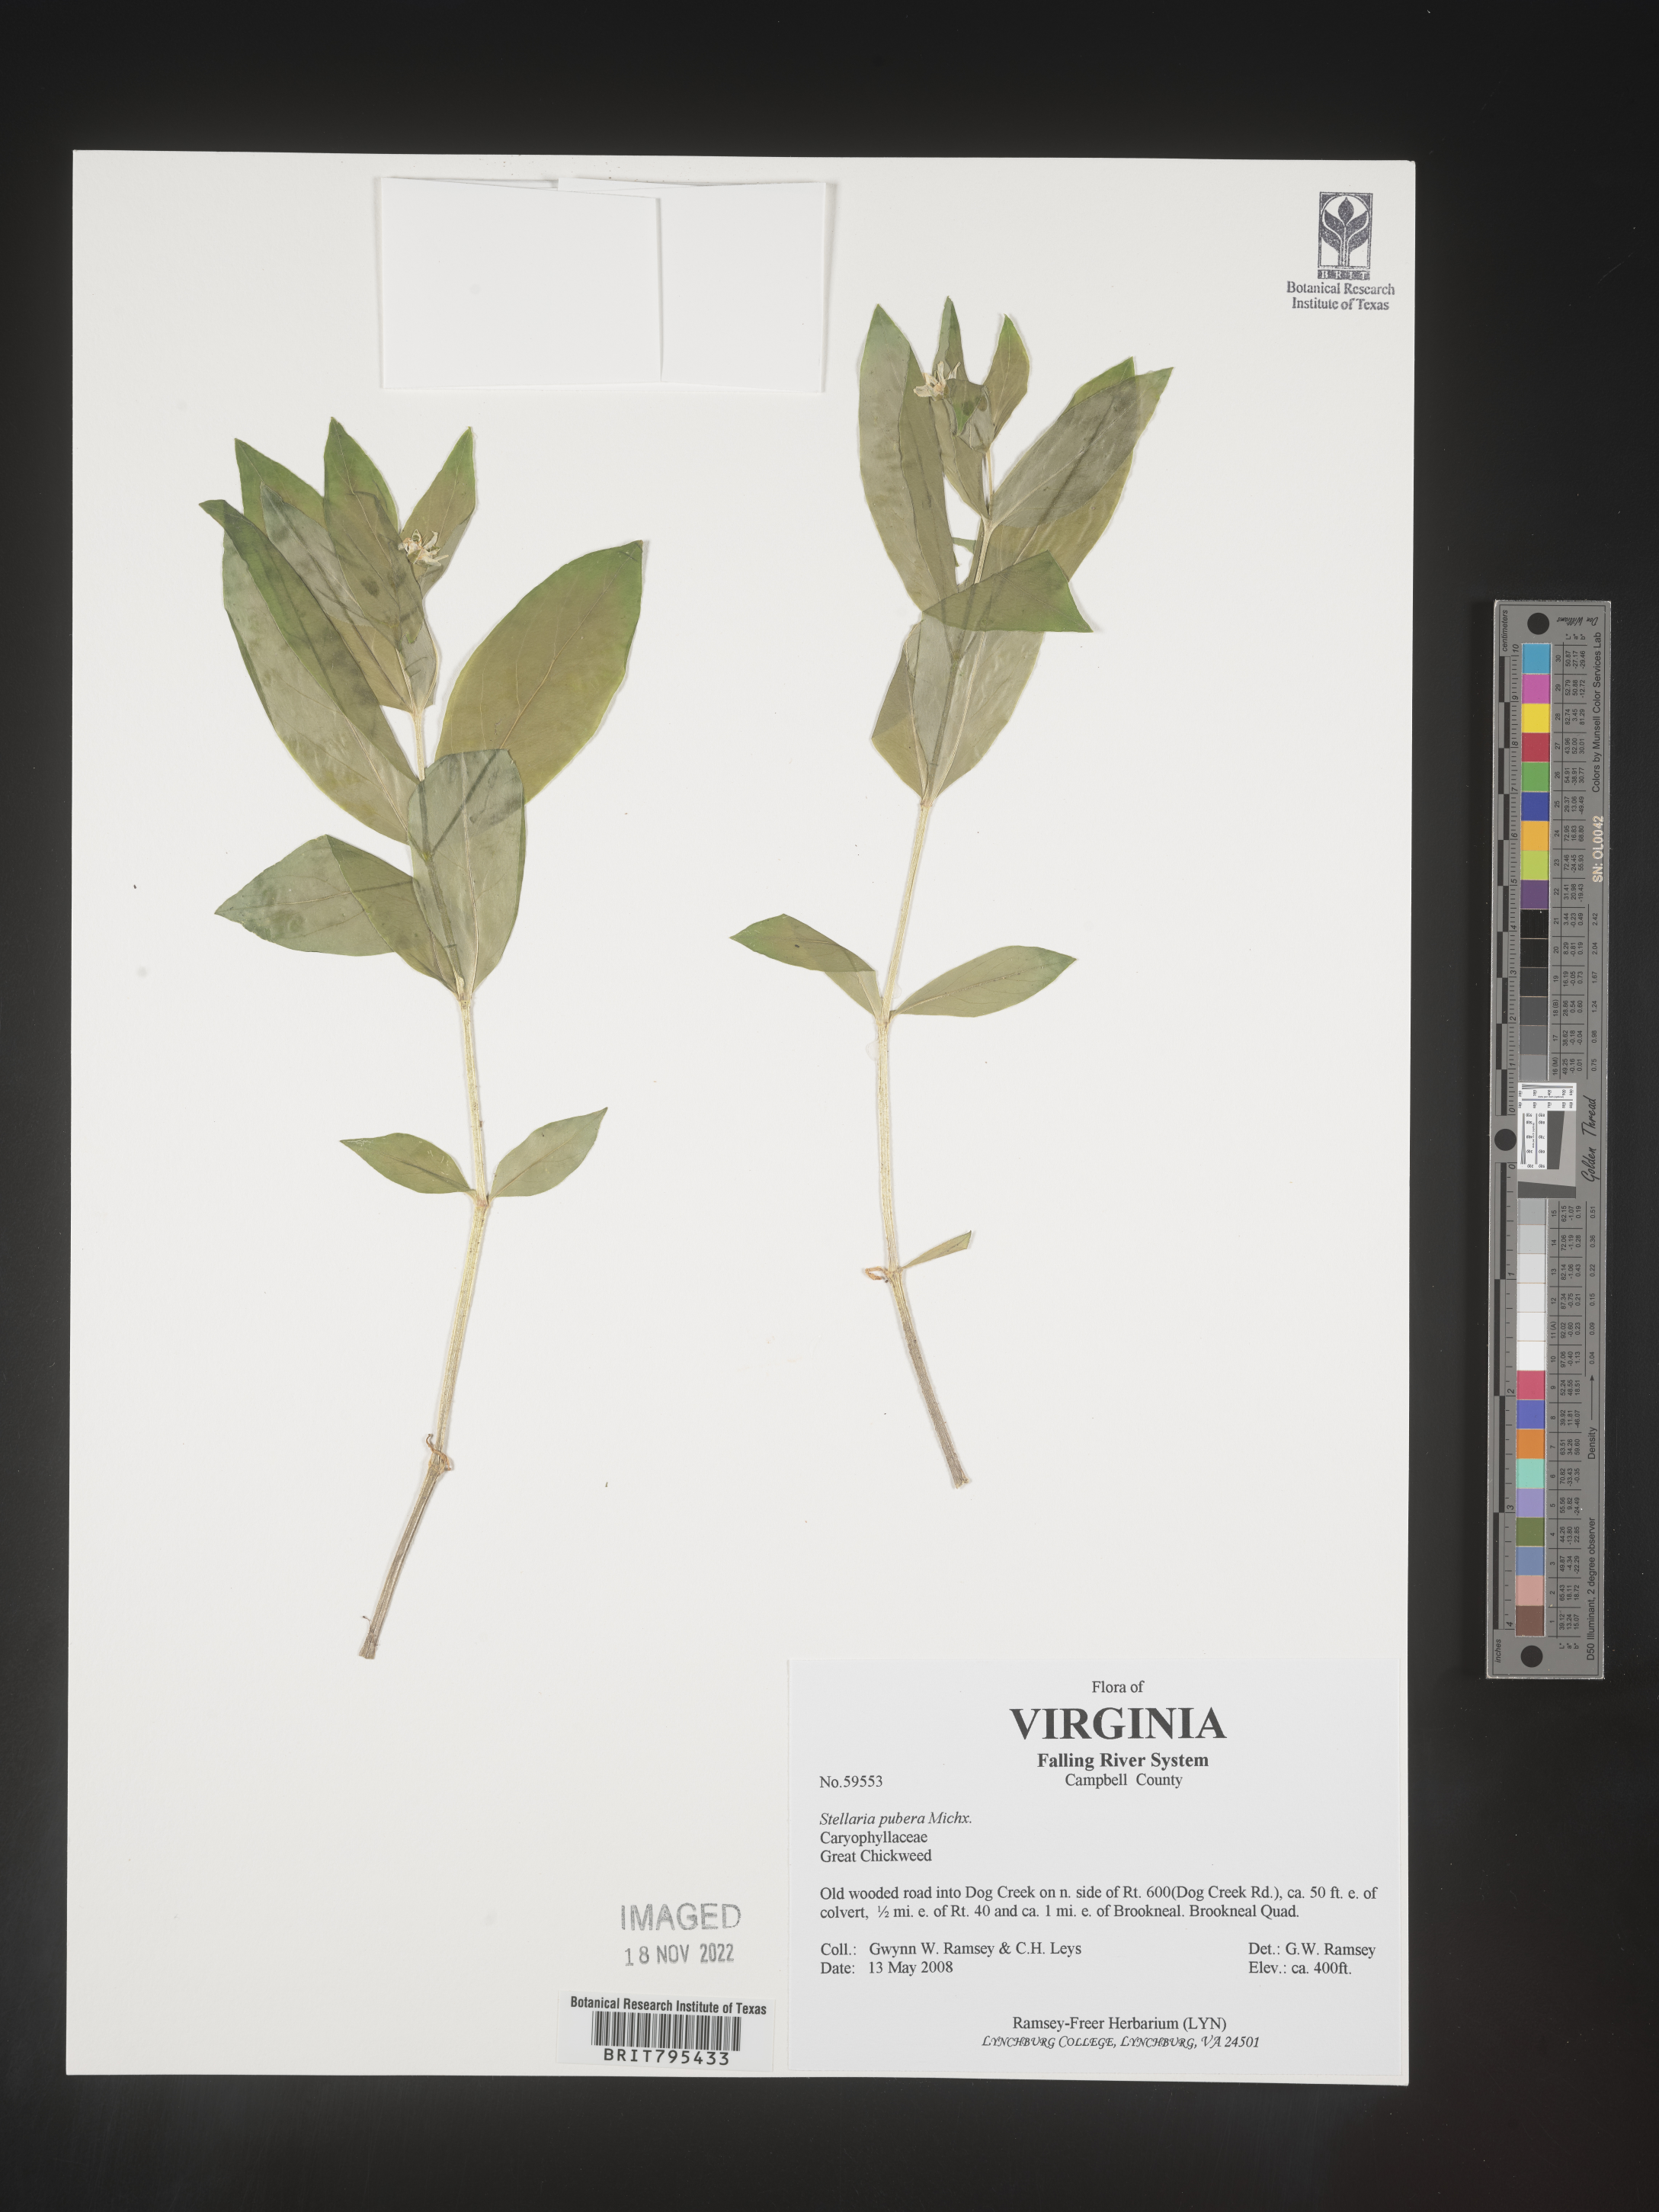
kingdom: Plantae
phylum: Tracheophyta
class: Magnoliopsida
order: Caryophyllales
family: Caryophyllaceae
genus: Stellaria
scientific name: Stellaria pubera
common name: Star chickweed
